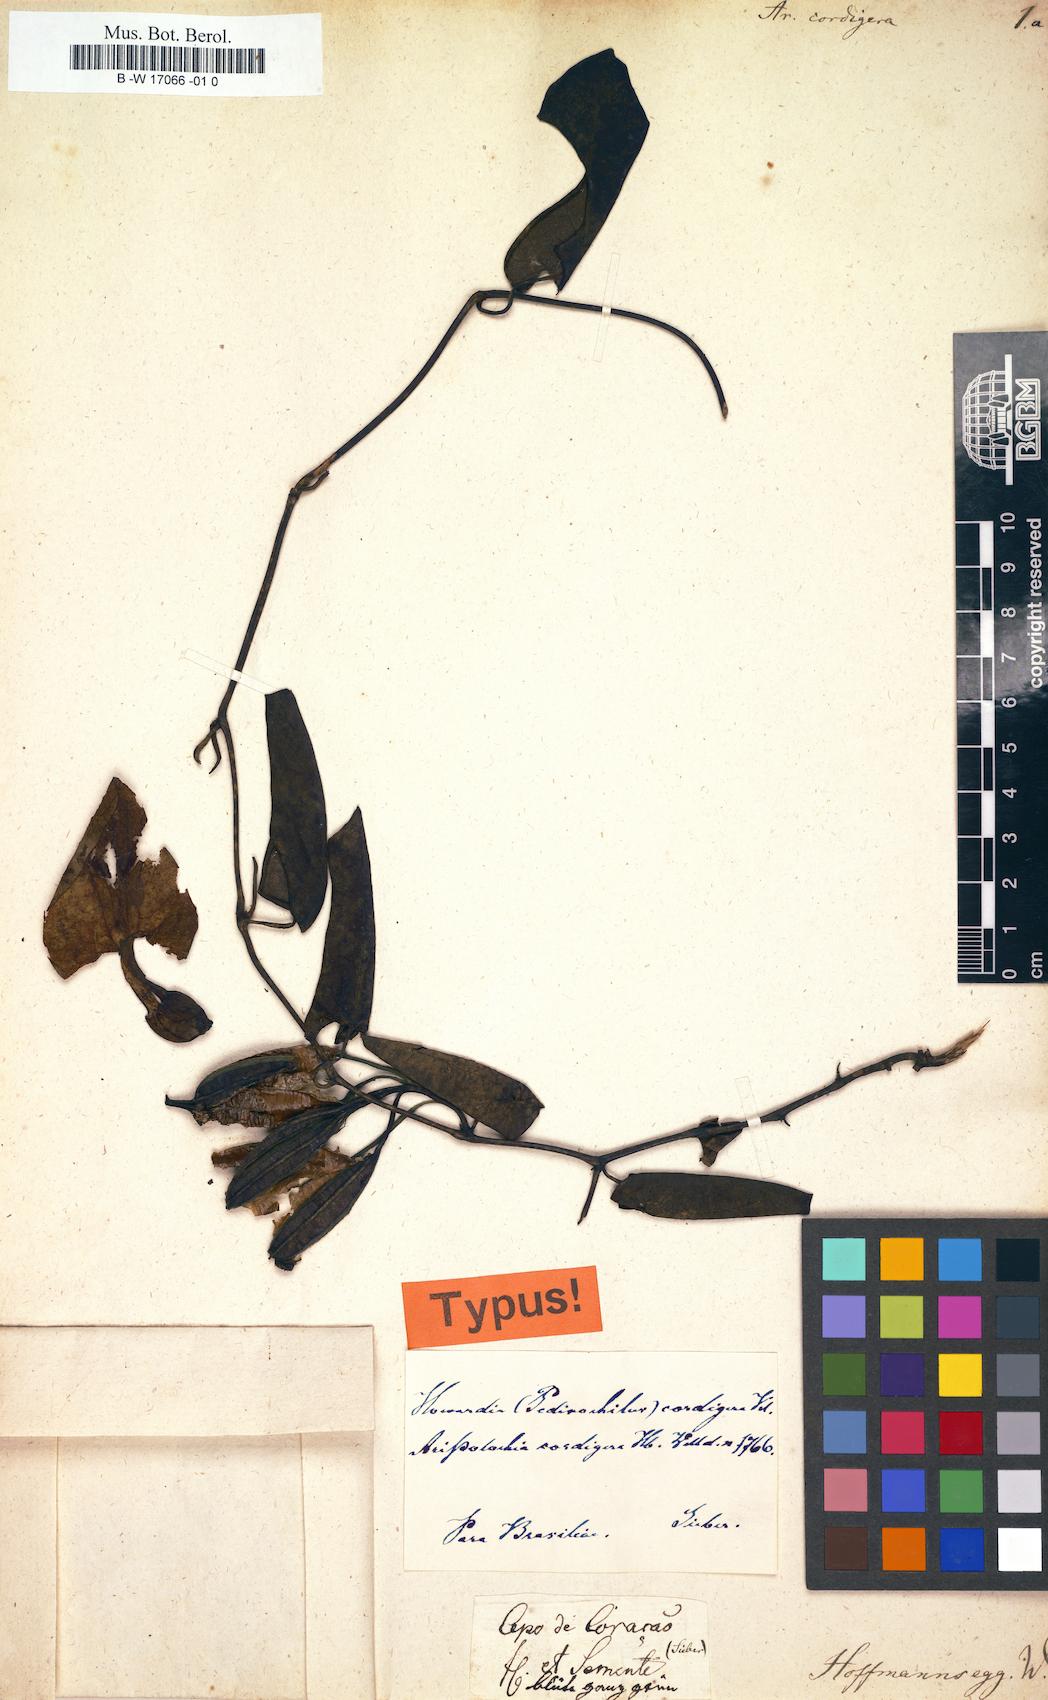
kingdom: Plantae
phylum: Tracheophyta
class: Magnoliopsida
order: Piperales
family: Aristolochiaceae
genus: Aristolochia
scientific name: Aristolochia cordigera
